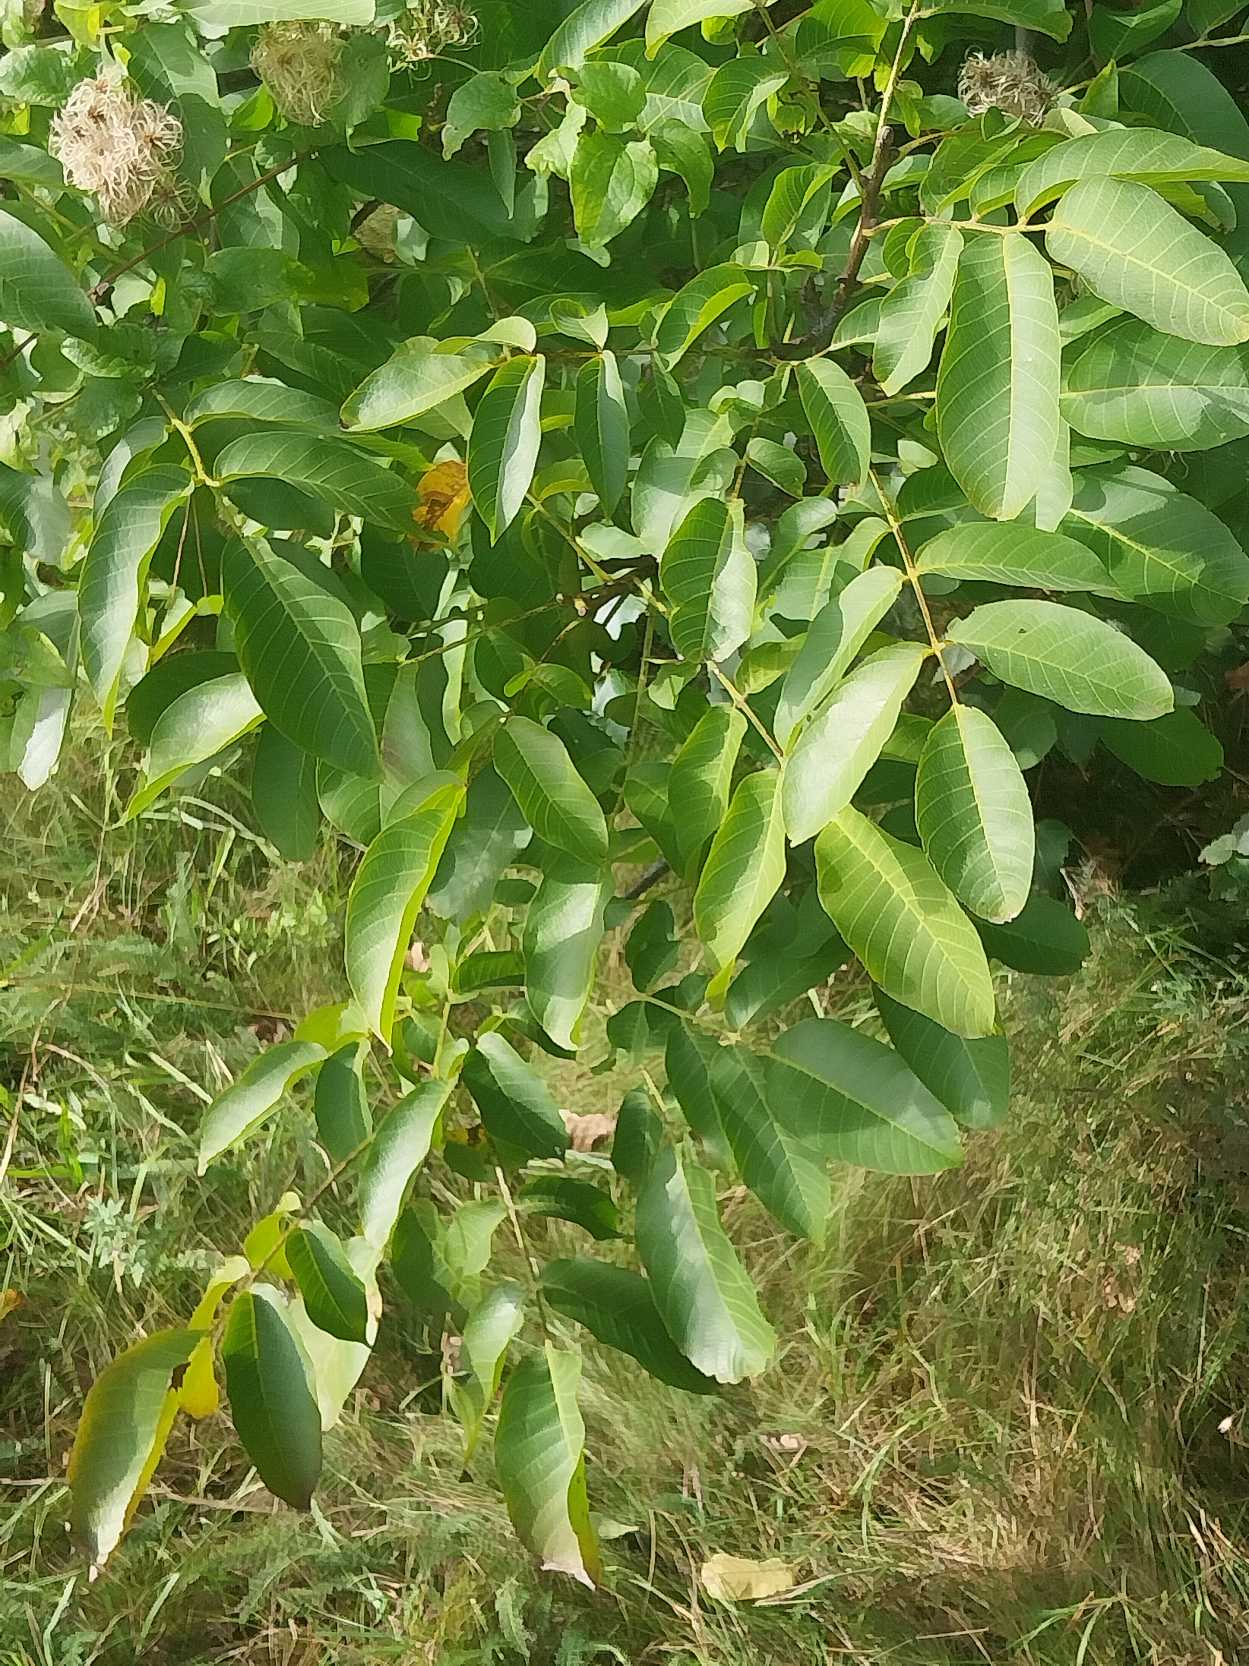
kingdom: Plantae
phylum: Tracheophyta
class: Magnoliopsida
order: Fagales
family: Juglandaceae
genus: Juglans
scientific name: Juglans regia
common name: Almindelig valnød
